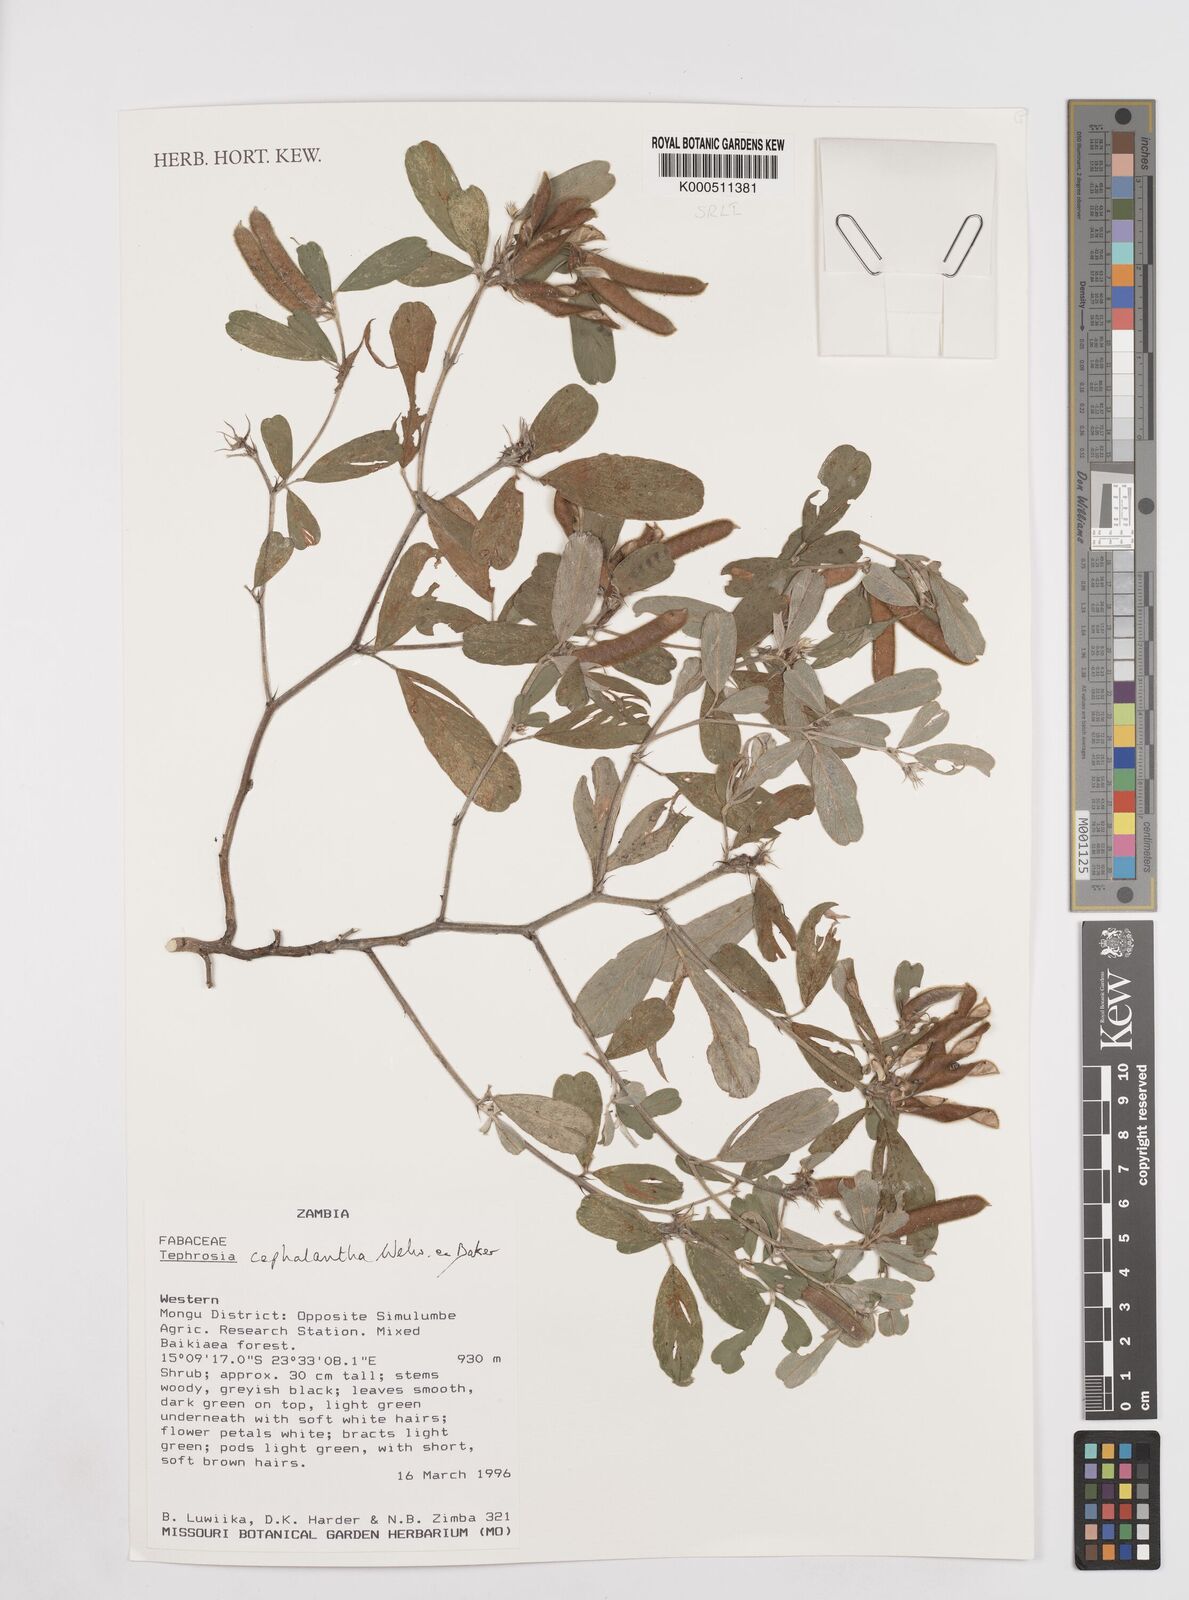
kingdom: Plantae
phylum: Tracheophyta
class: Magnoliopsida
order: Fabales
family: Fabaceae
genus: Tephrosia
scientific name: Tephrosia cephalantha
